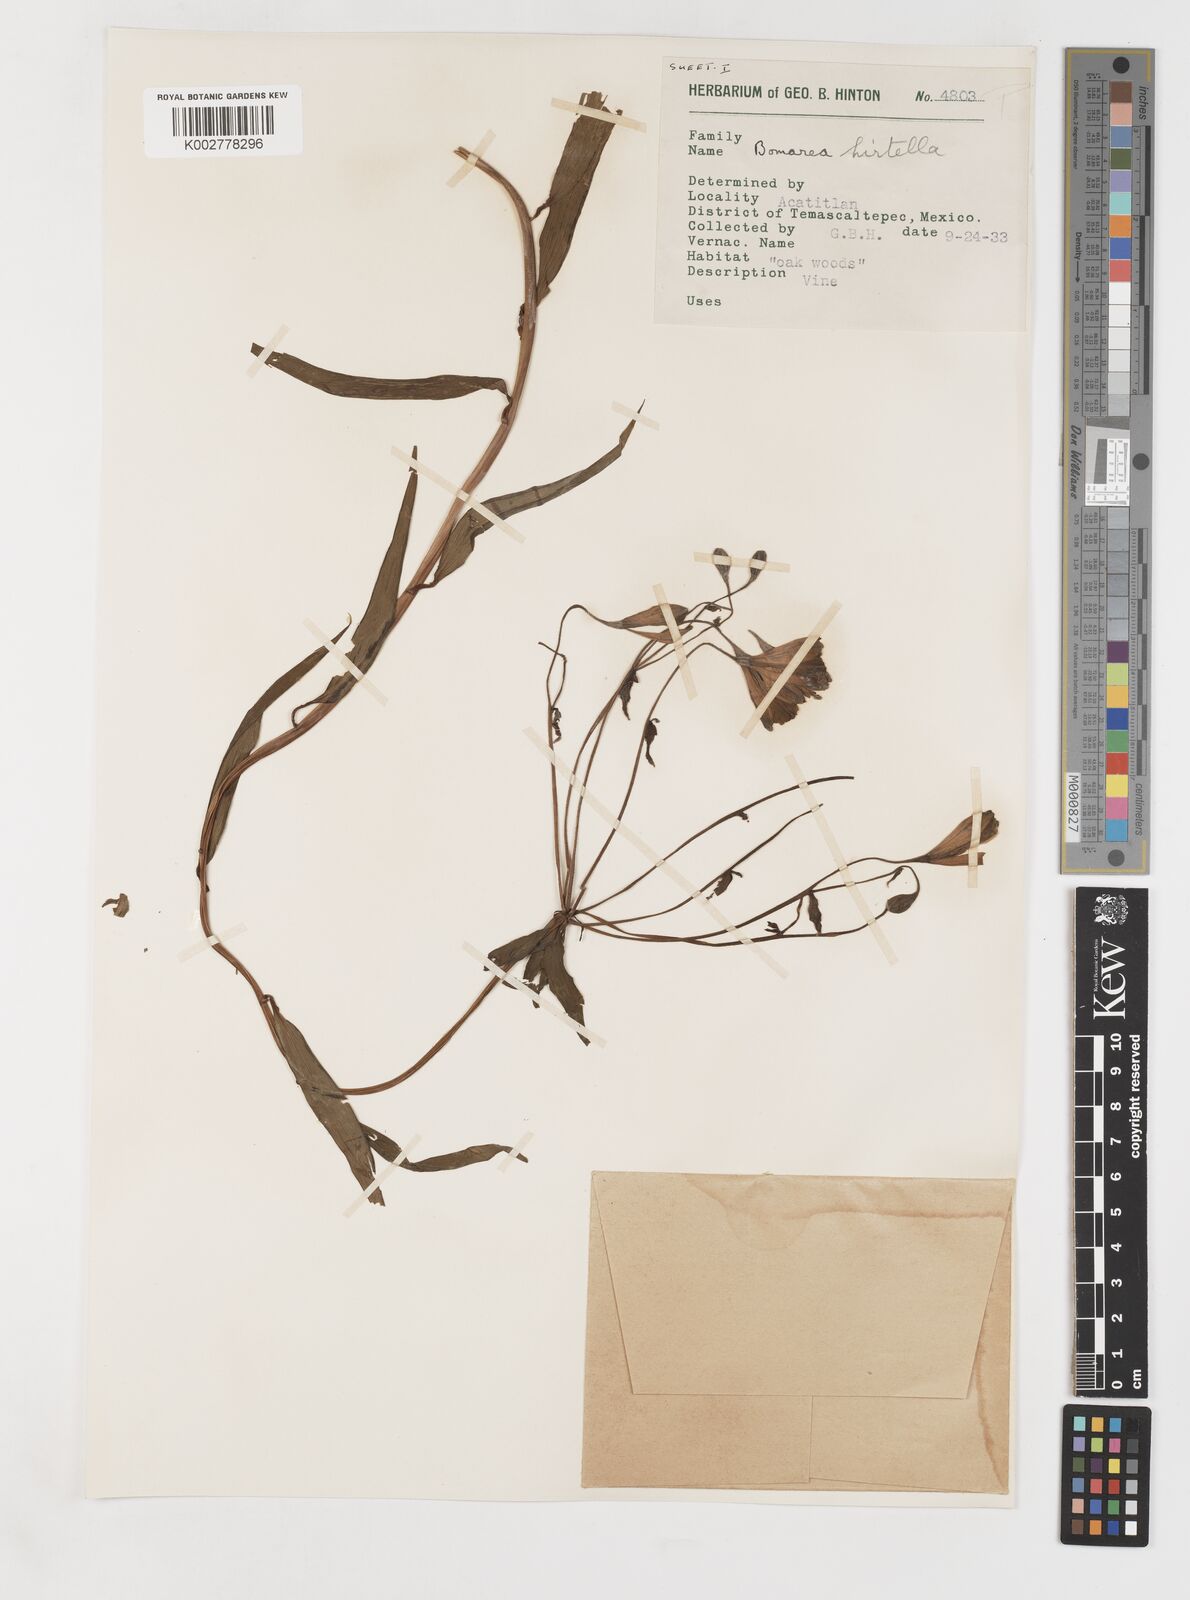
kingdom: Plantae
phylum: Tracheophyta
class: Liliopsida
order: Liliales
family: Alstroemeriaceae
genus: Bomarea
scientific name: Bomarea edulis
